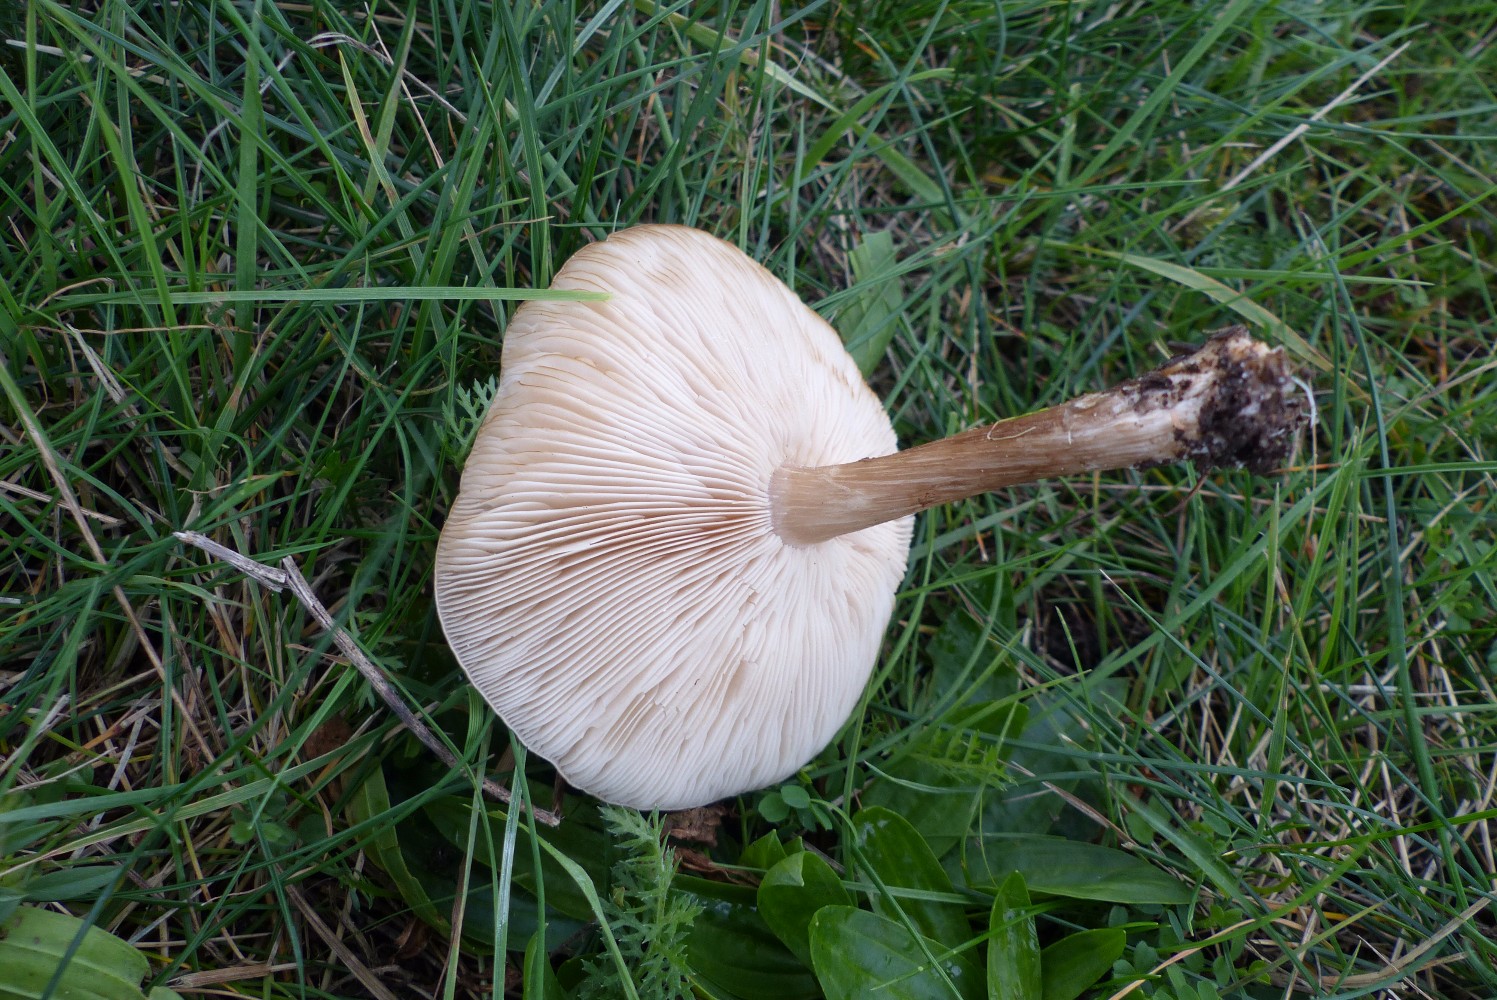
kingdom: Fungi
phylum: Basidiomycota
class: Agaricomycetes
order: Agaricales
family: Tricholomataceae
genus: Melanoleuca
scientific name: Melanoleuca
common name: munkehat
